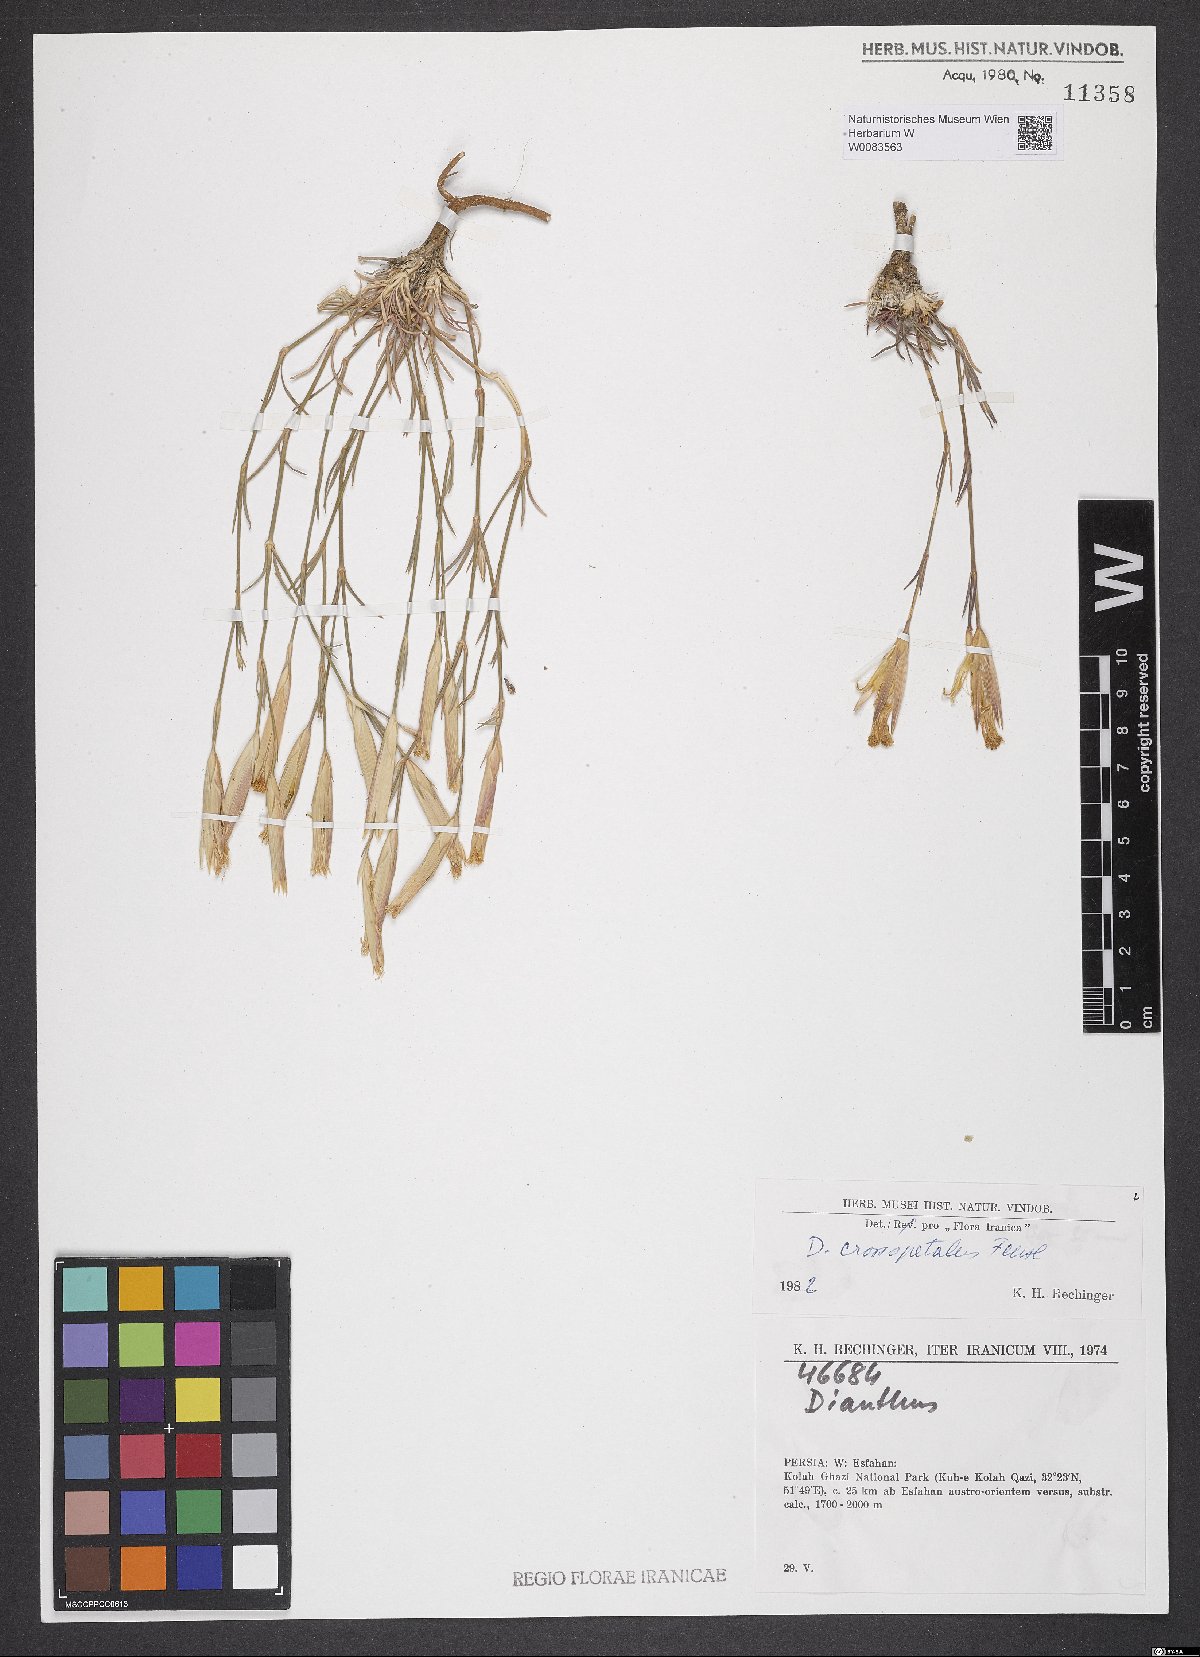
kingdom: Plantae
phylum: Tracheophyta
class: Magnoliopsida
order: Caryophyllales
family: Caryophyllaceae
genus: Dianthus
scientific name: Dianthus crossopetalus
